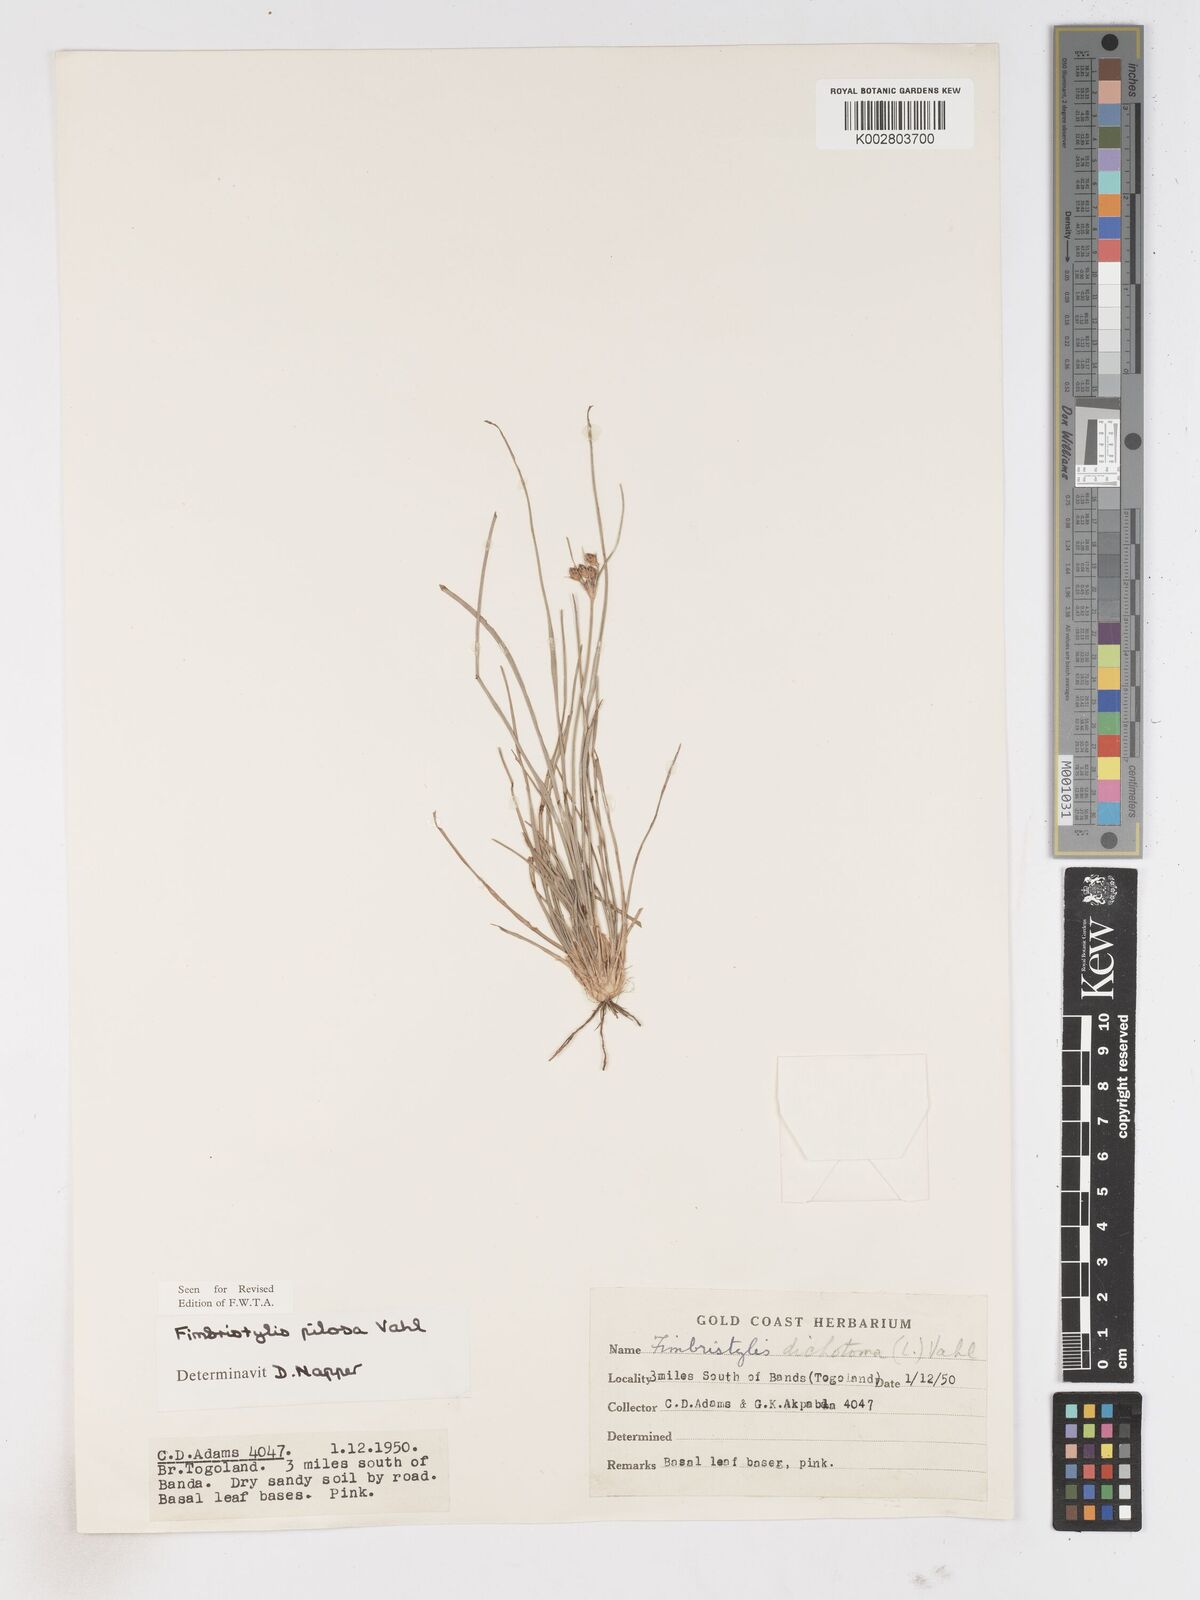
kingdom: Plantae
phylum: Tracheophyta
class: Liliopsida
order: Poales
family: Cyperaceae
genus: Fimbristylis
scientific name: Fimbristylis pilosa
